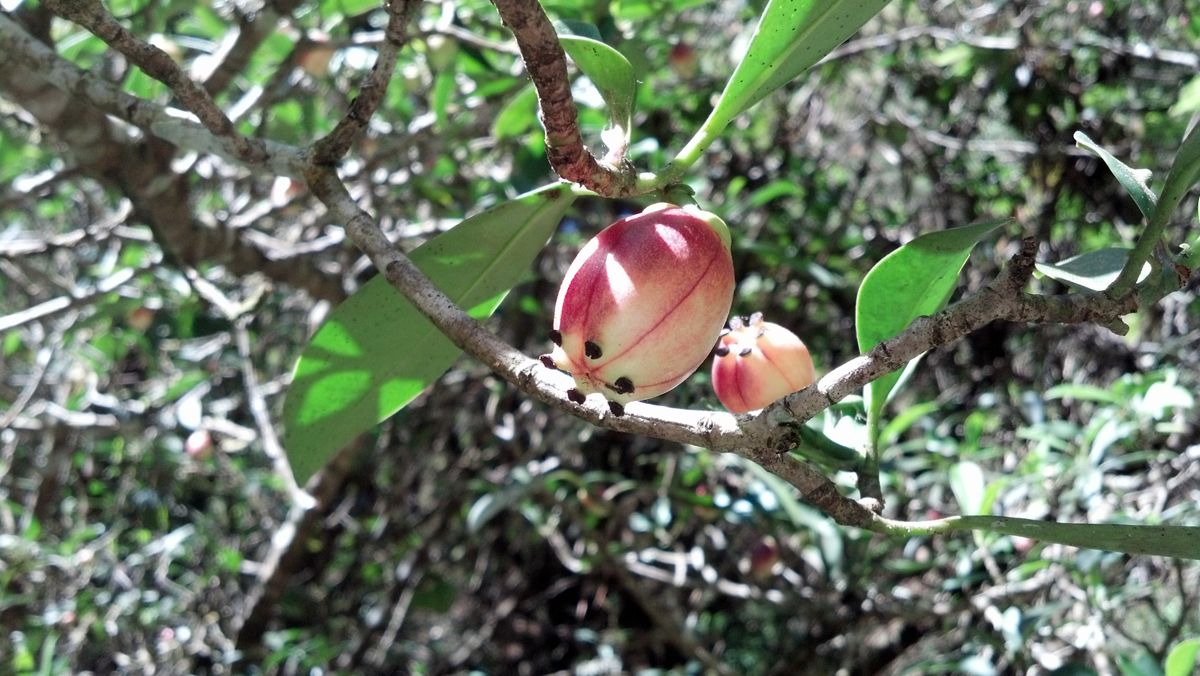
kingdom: Plantae
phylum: Tracheophyta
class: Magnoliopsida
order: Malpighiales
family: Clusiaceae
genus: Clusia
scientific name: Clusia guatemalensis
